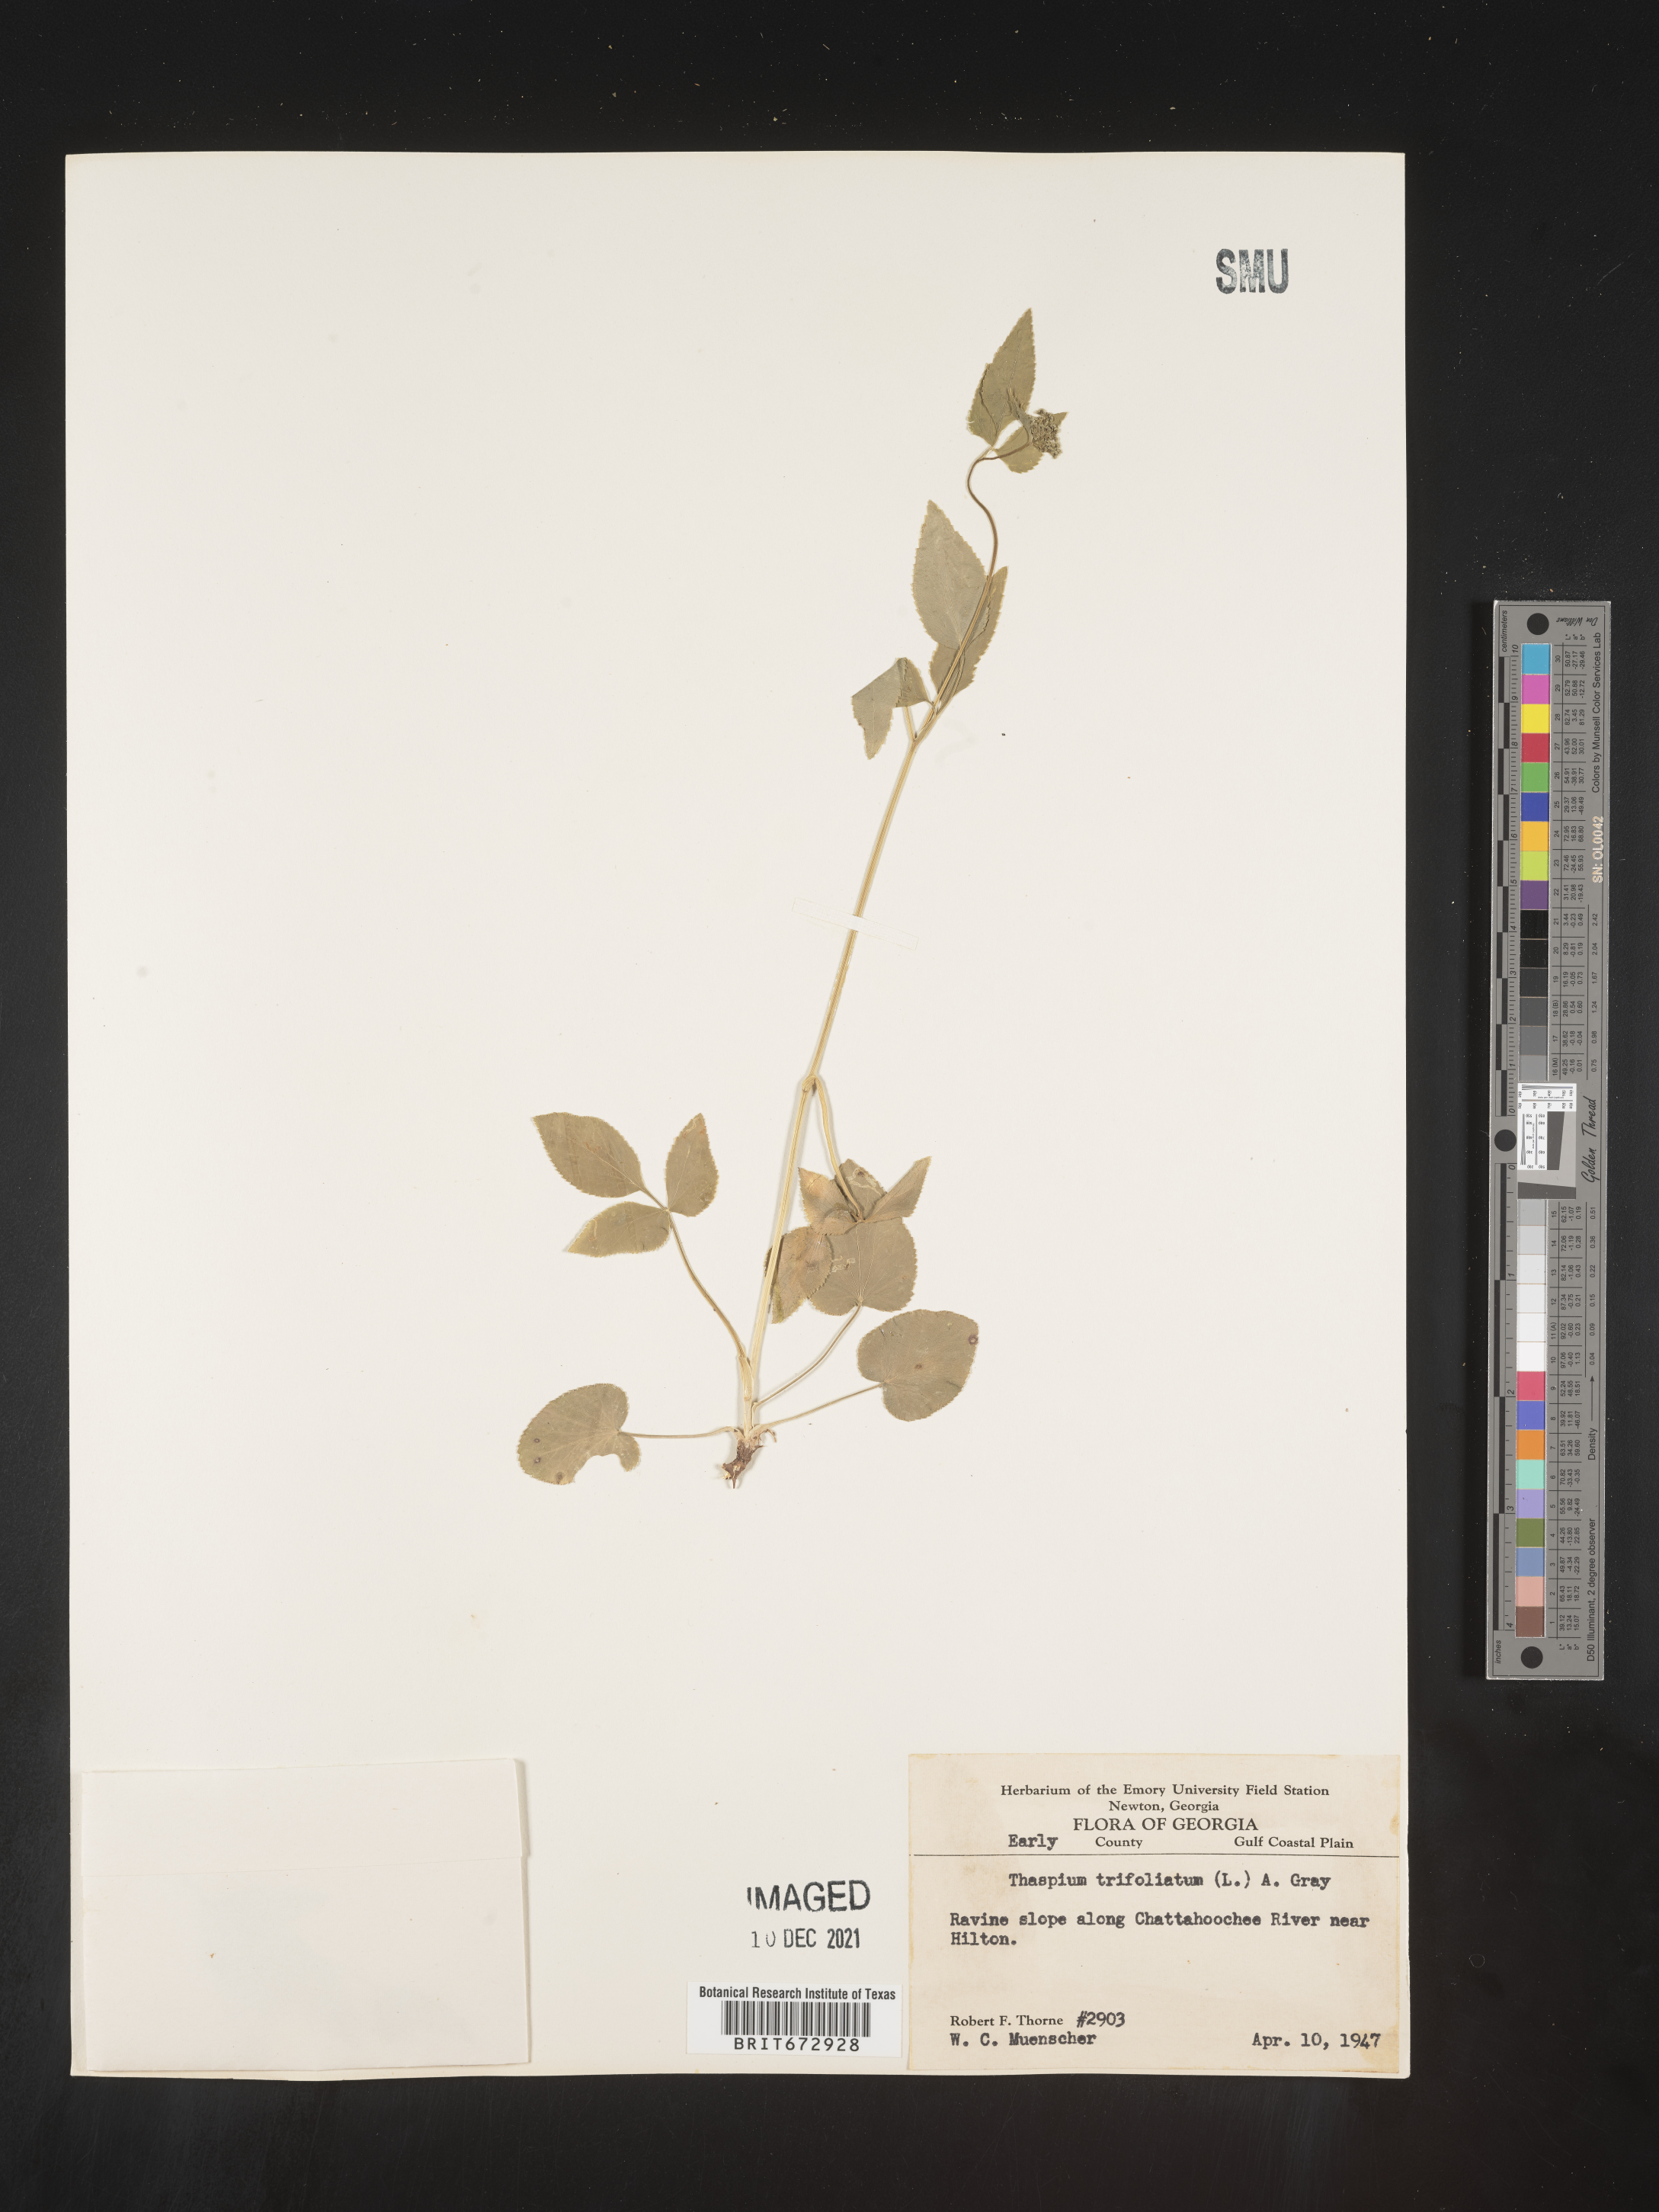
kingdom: Plantae
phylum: Tracheophyta
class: Magnoliopsida
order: Apiales
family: Apiaceae
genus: Thaspium
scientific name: Thaspium
